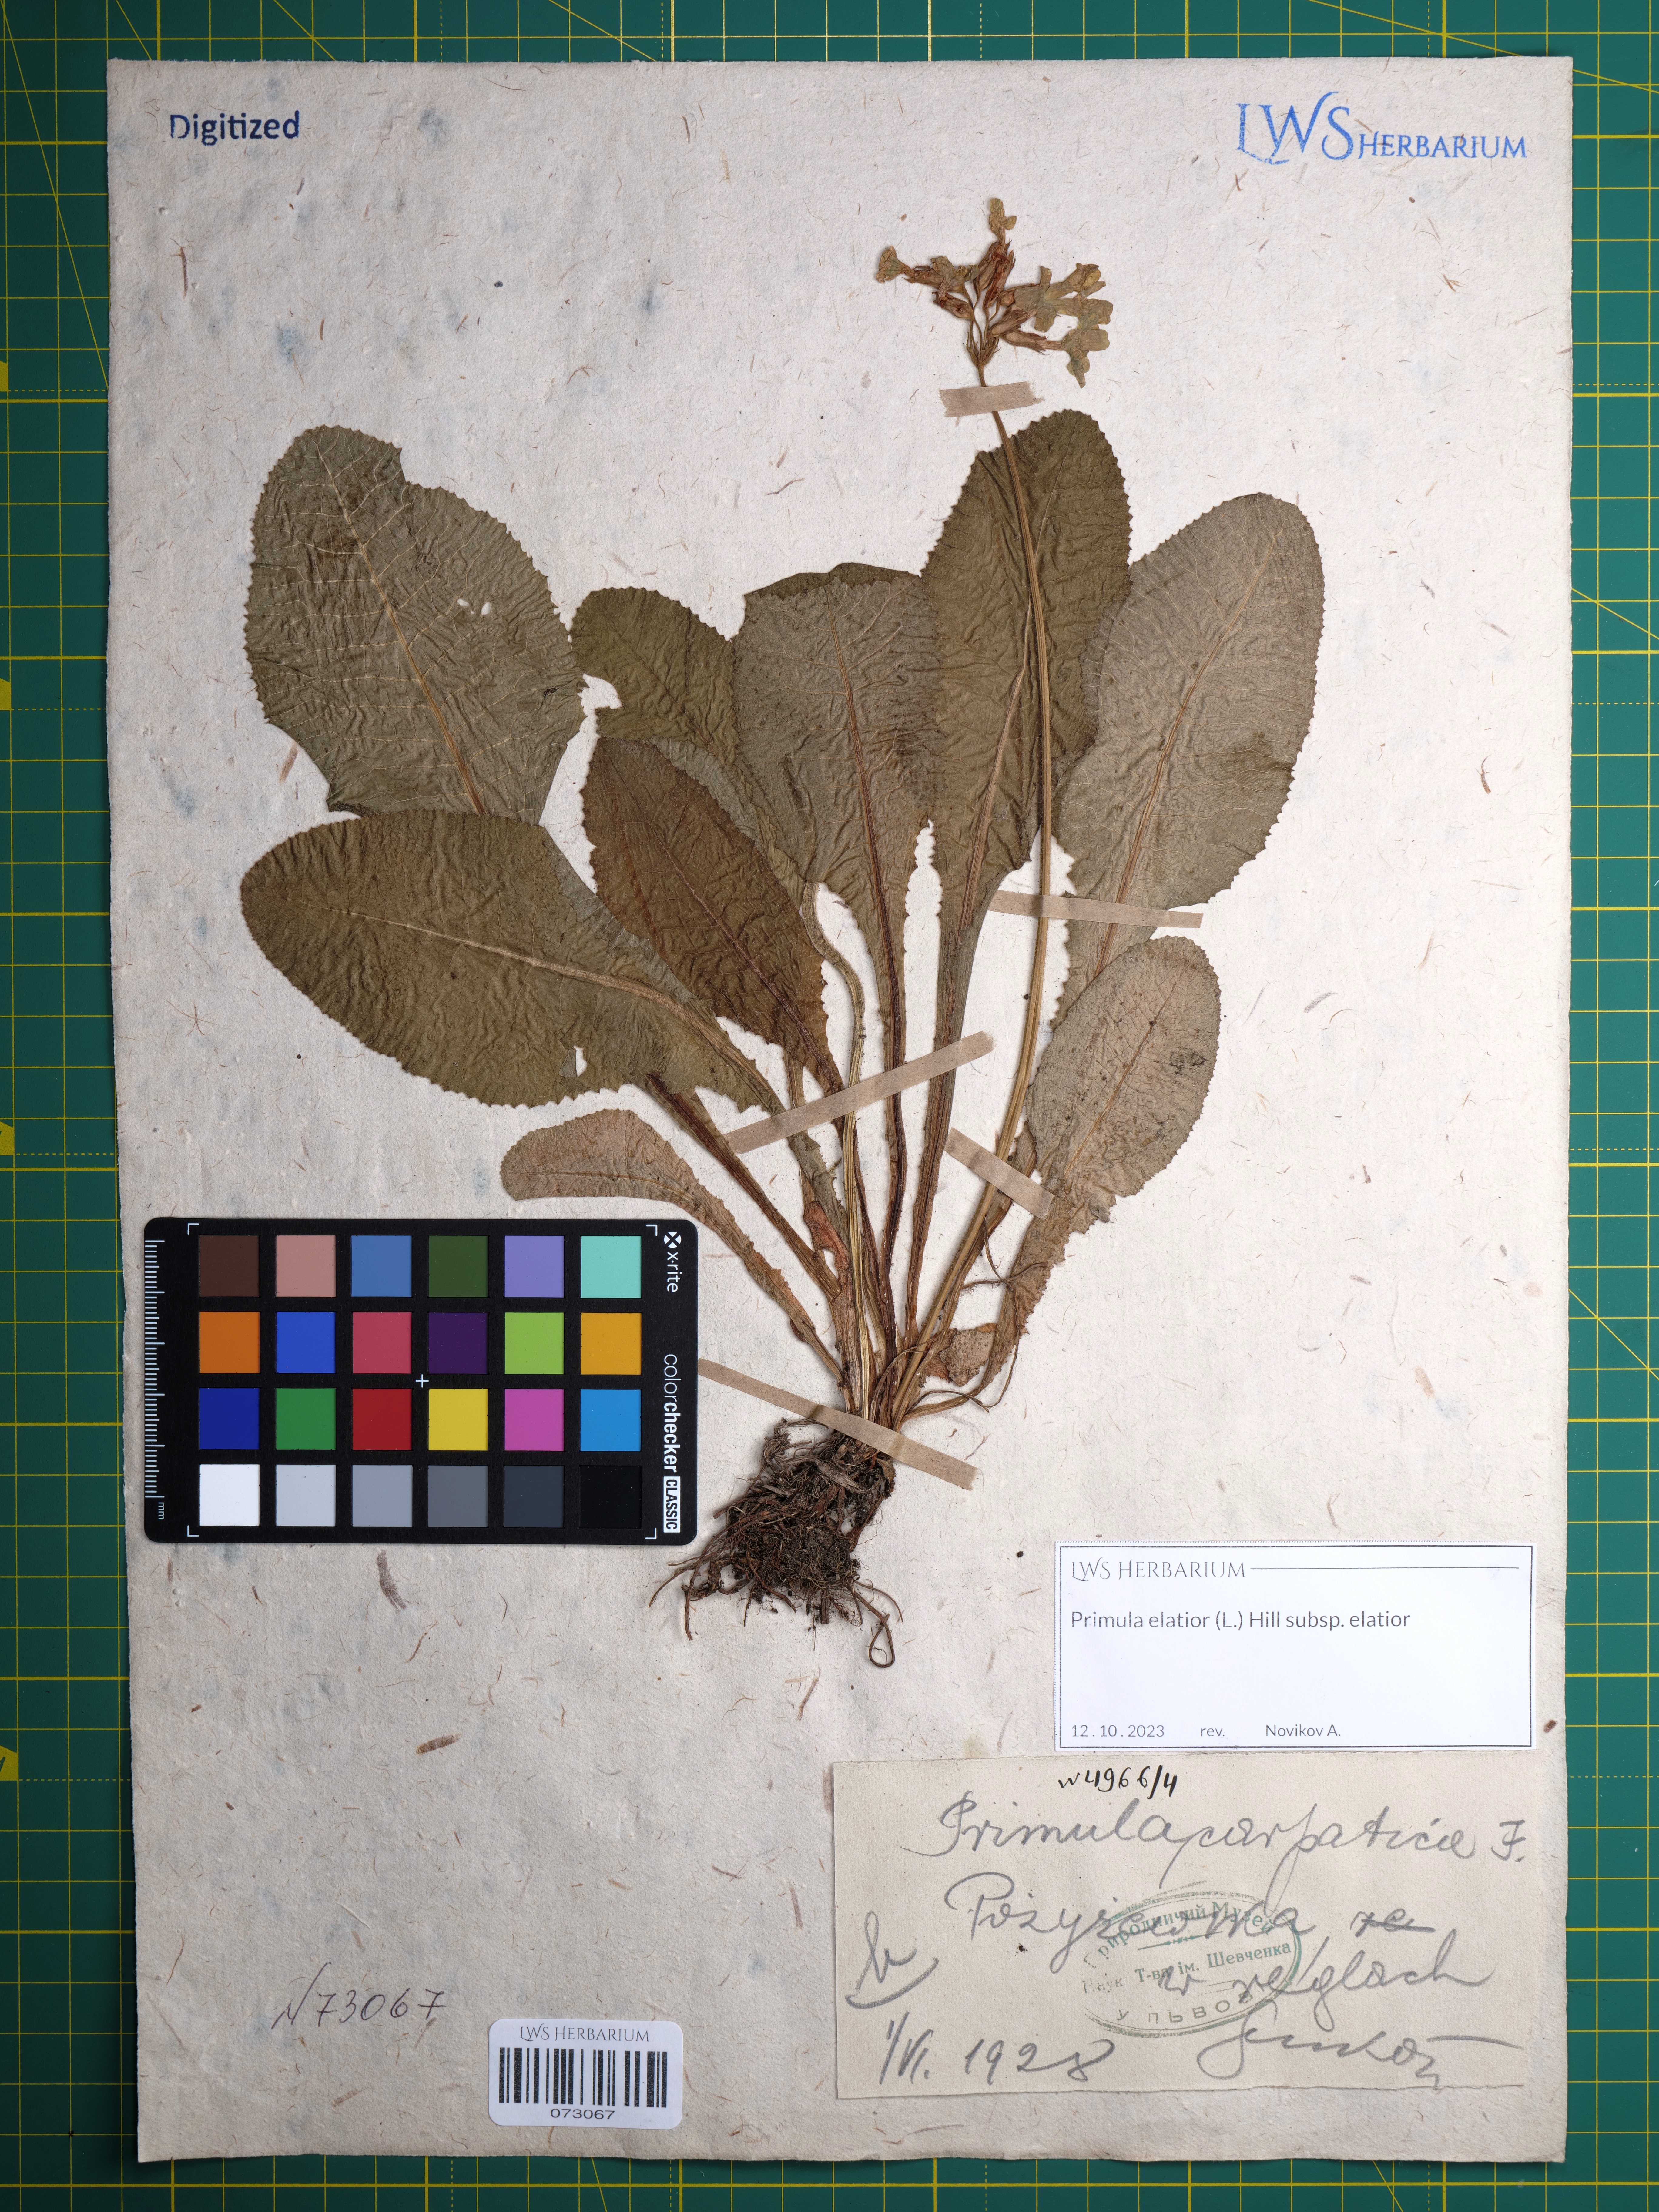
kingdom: Plantae
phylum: Tracheophyta
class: Magnoliopsida
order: Ericales
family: Primulaceae
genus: Primula
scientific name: Primula elatior
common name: Oxlip
